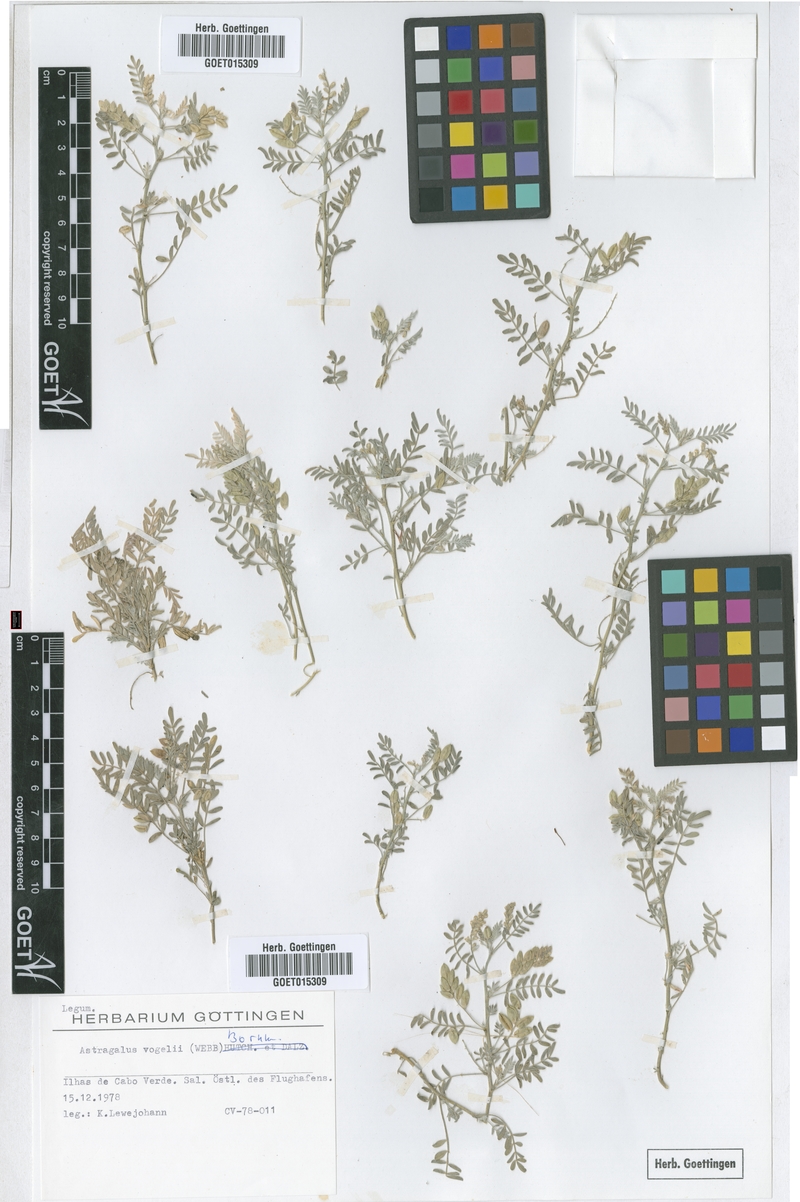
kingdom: Plantae
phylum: Tracheophyta
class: Magnoliopsida
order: Fabales
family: Fabaceae
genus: Astragalus
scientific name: Astragalus vogelii
